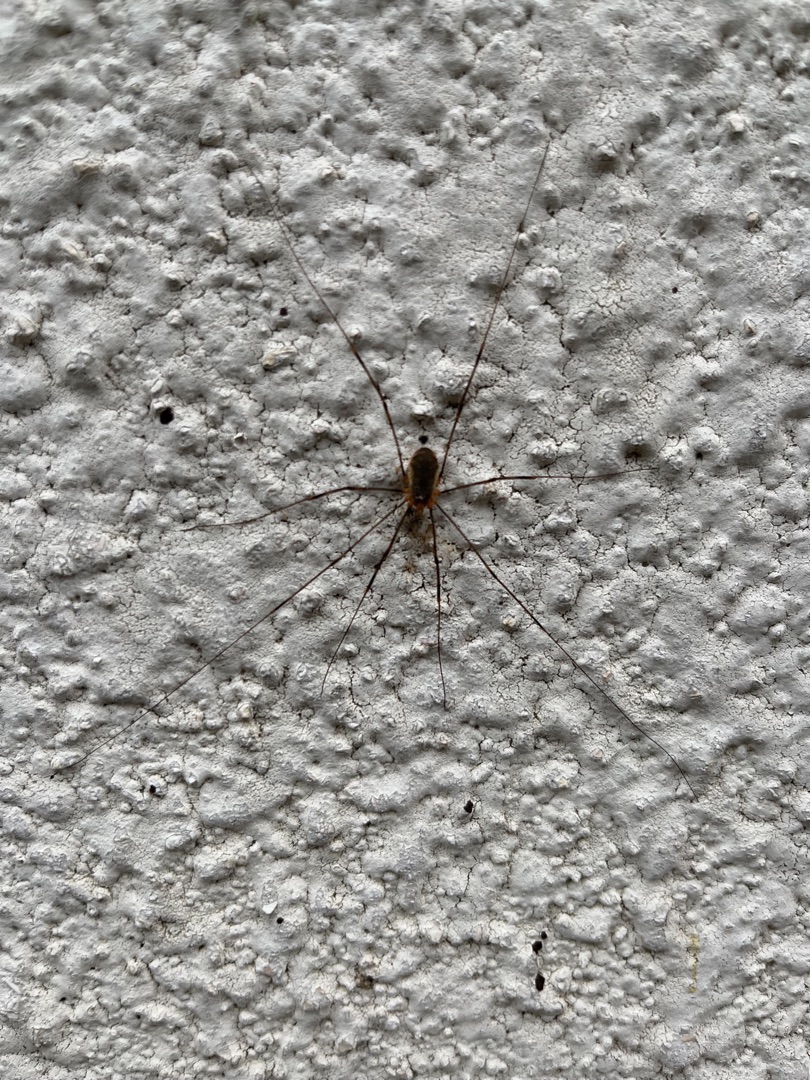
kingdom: Animalia
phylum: Arthropoda
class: Arachnida
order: Opiliones
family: Phalangiidae
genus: Opilio
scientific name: Opilio canestrinii
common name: Orange vægmejer
